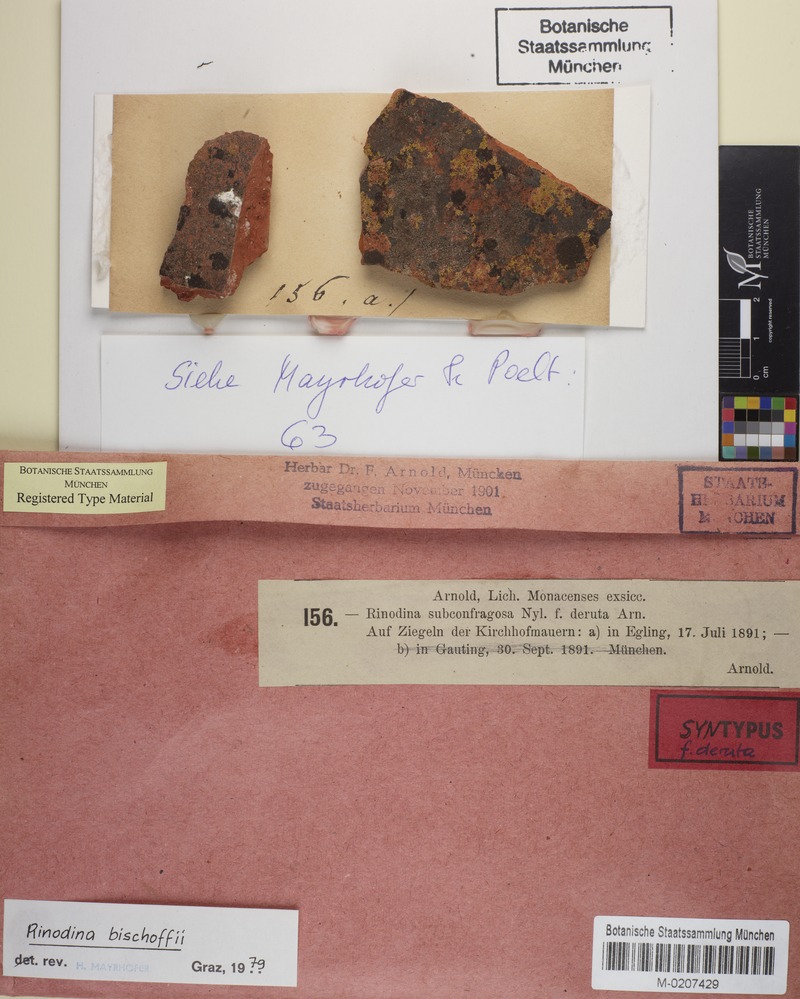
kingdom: Fungi
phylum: Ascomycota
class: Lecanoromycetes
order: Caliciales
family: Physciaceae
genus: Rinodina
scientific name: Rinodina bischoffii
